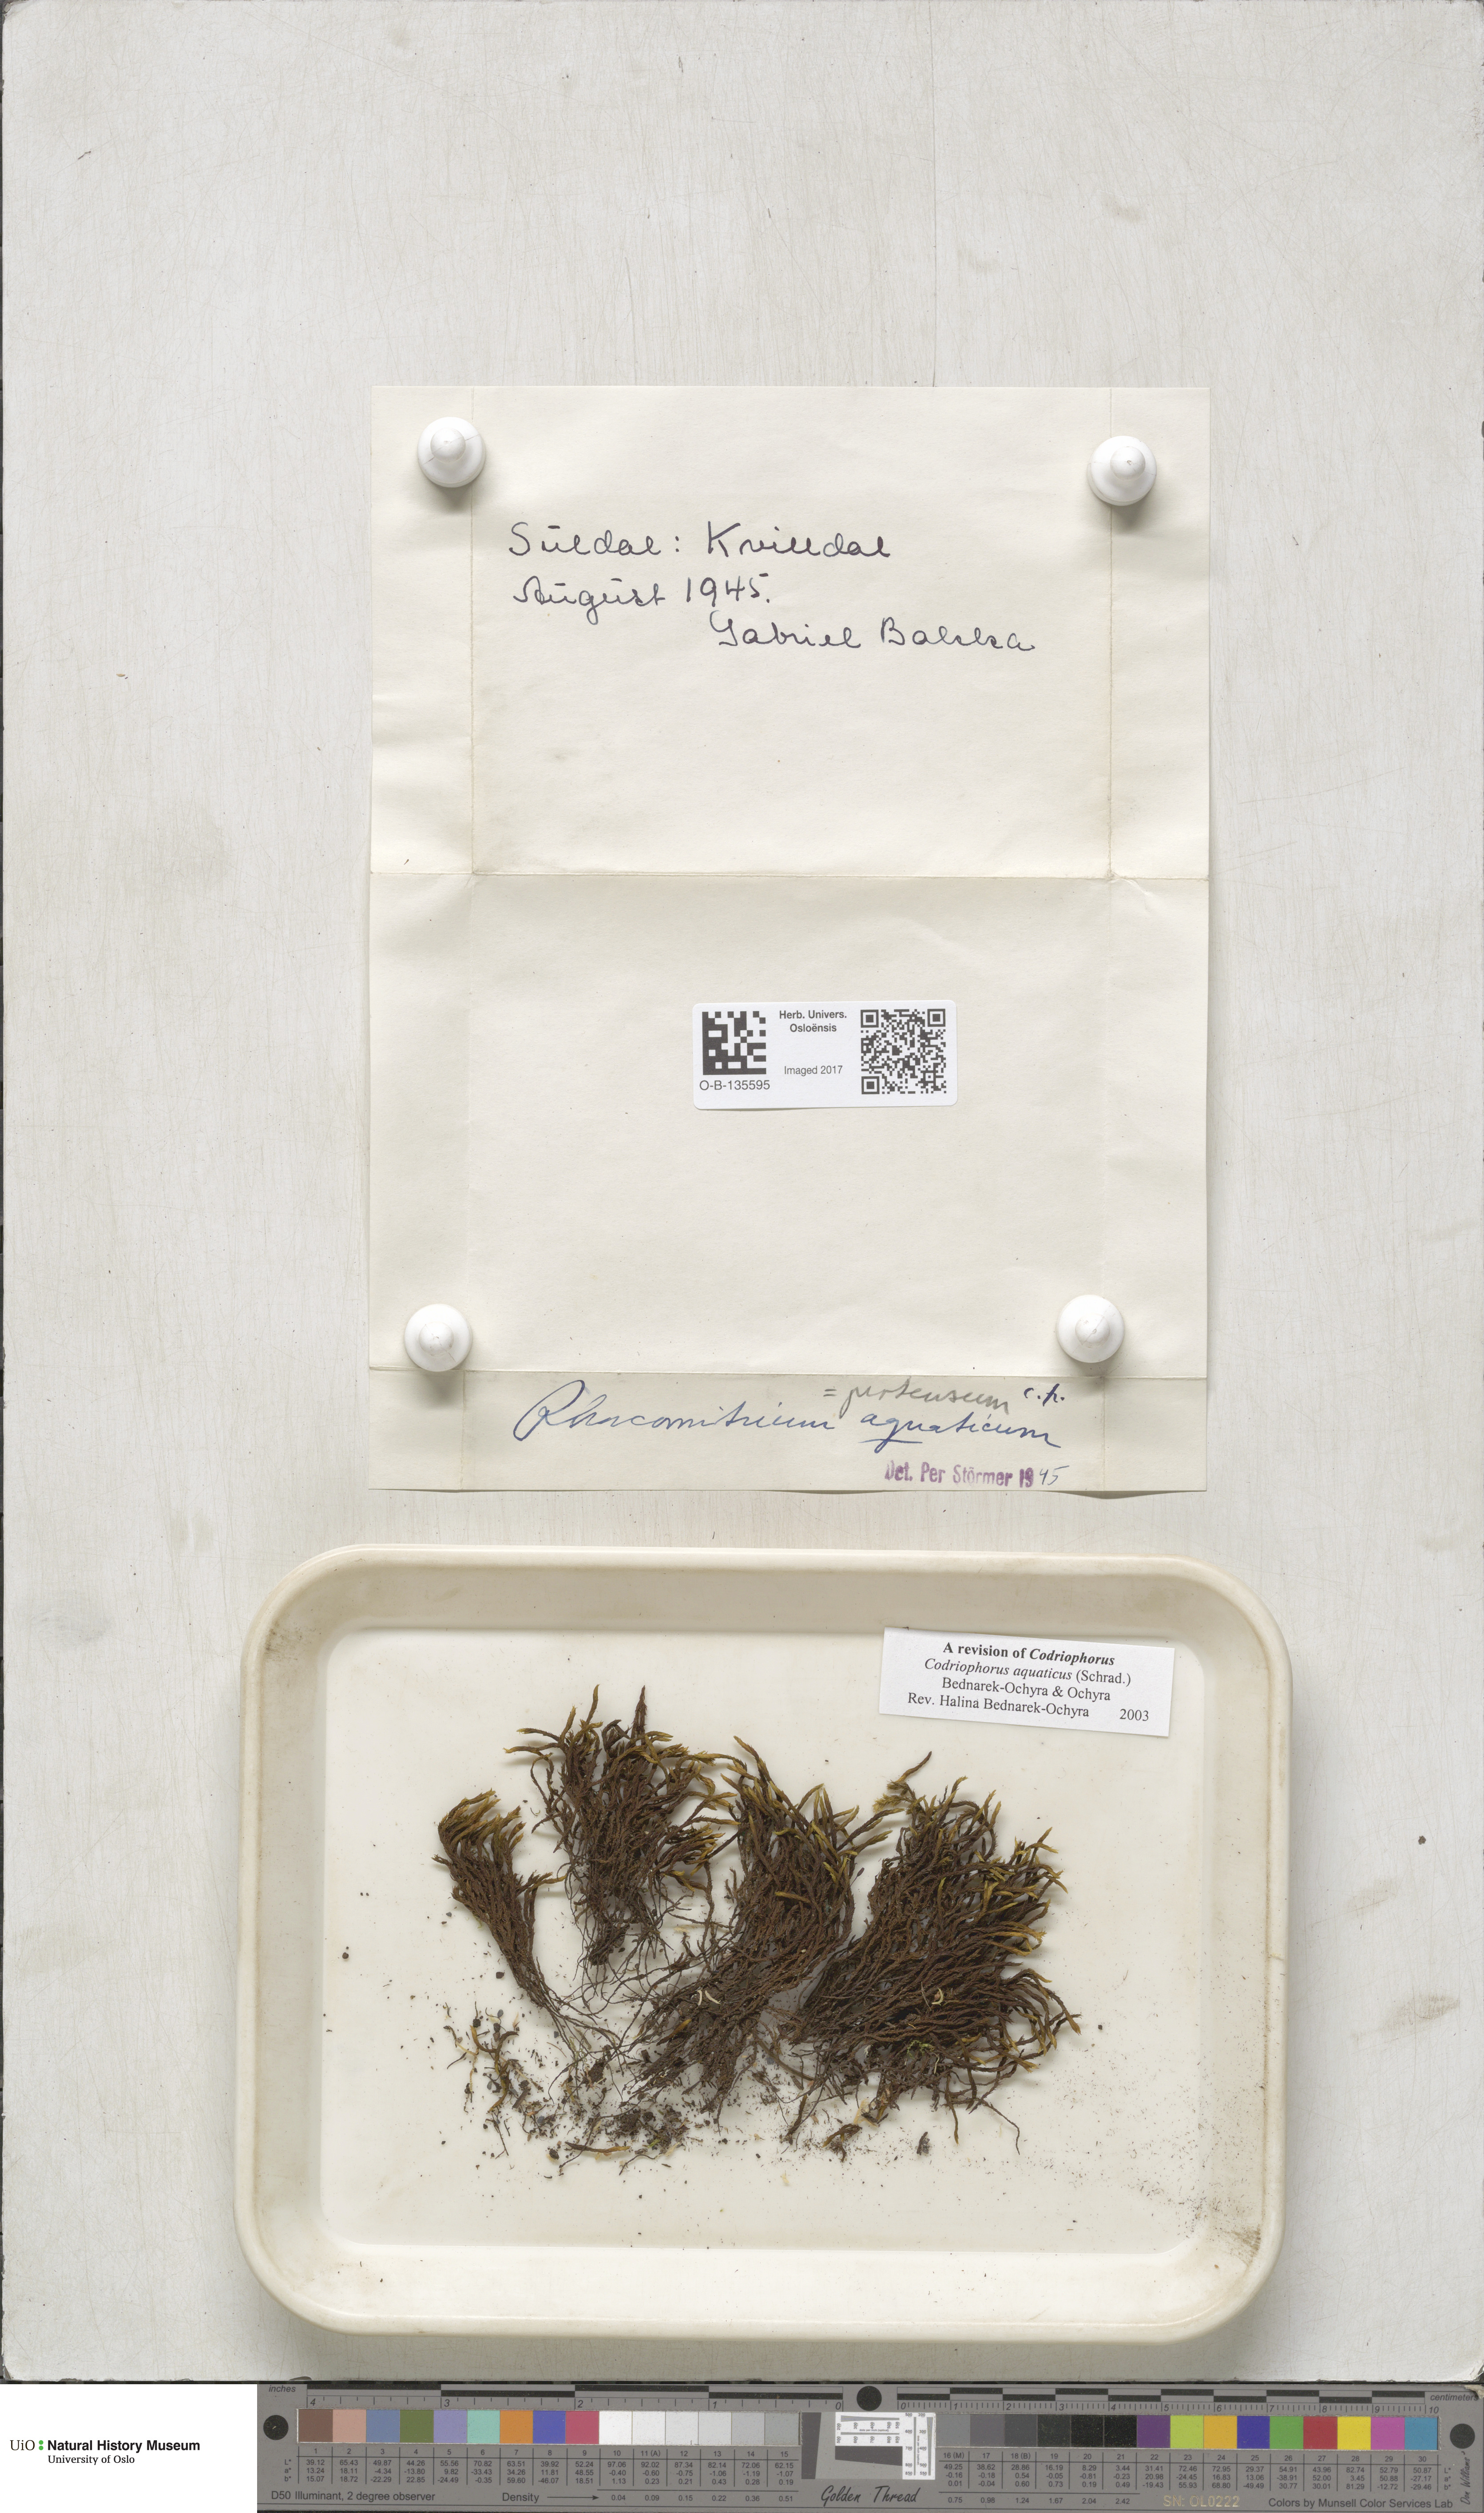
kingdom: Plantae
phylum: Bryophyta
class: Bryopsida
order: Grimmiales
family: Grimmiaceae
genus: Codriophorus
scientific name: Codriophorus aquaticus
